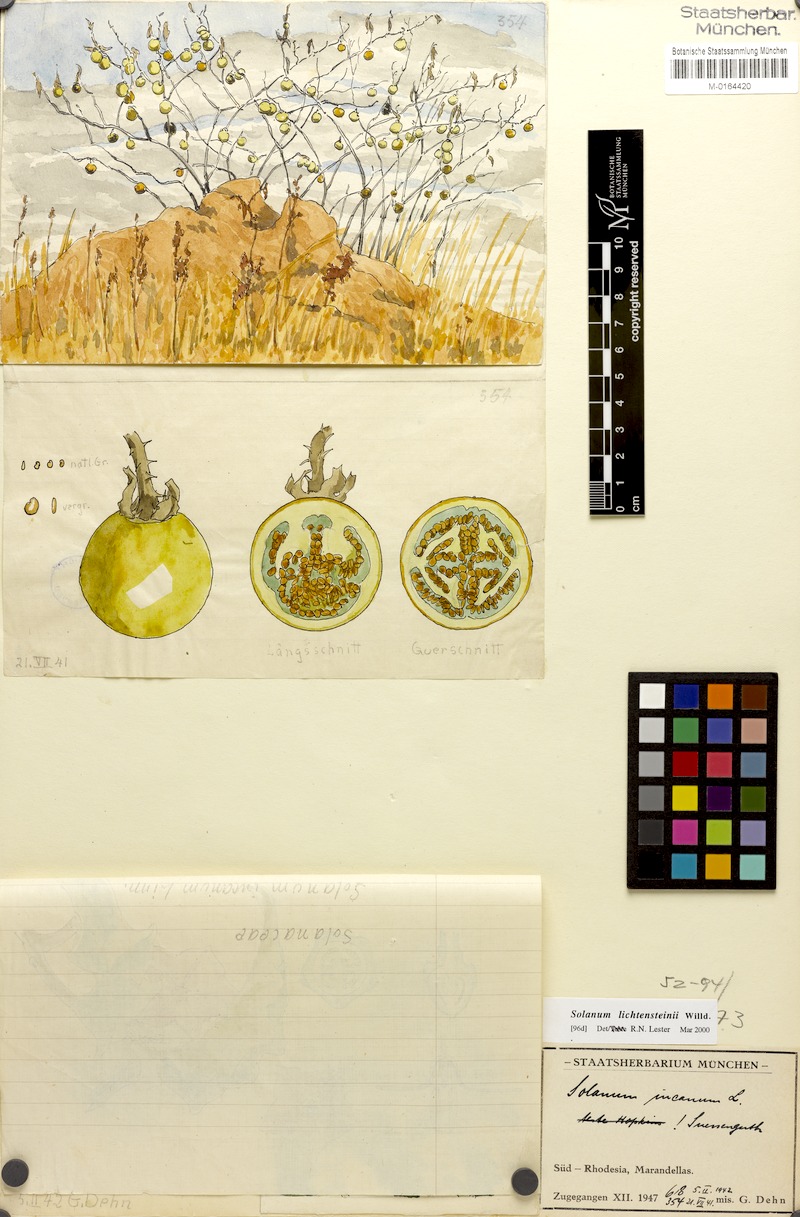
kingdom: Plantae
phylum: Tracheophyta
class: Magnoliopsida
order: Solanales
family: Solanaceae
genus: Solanum
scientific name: Solanum lichtensteinii
